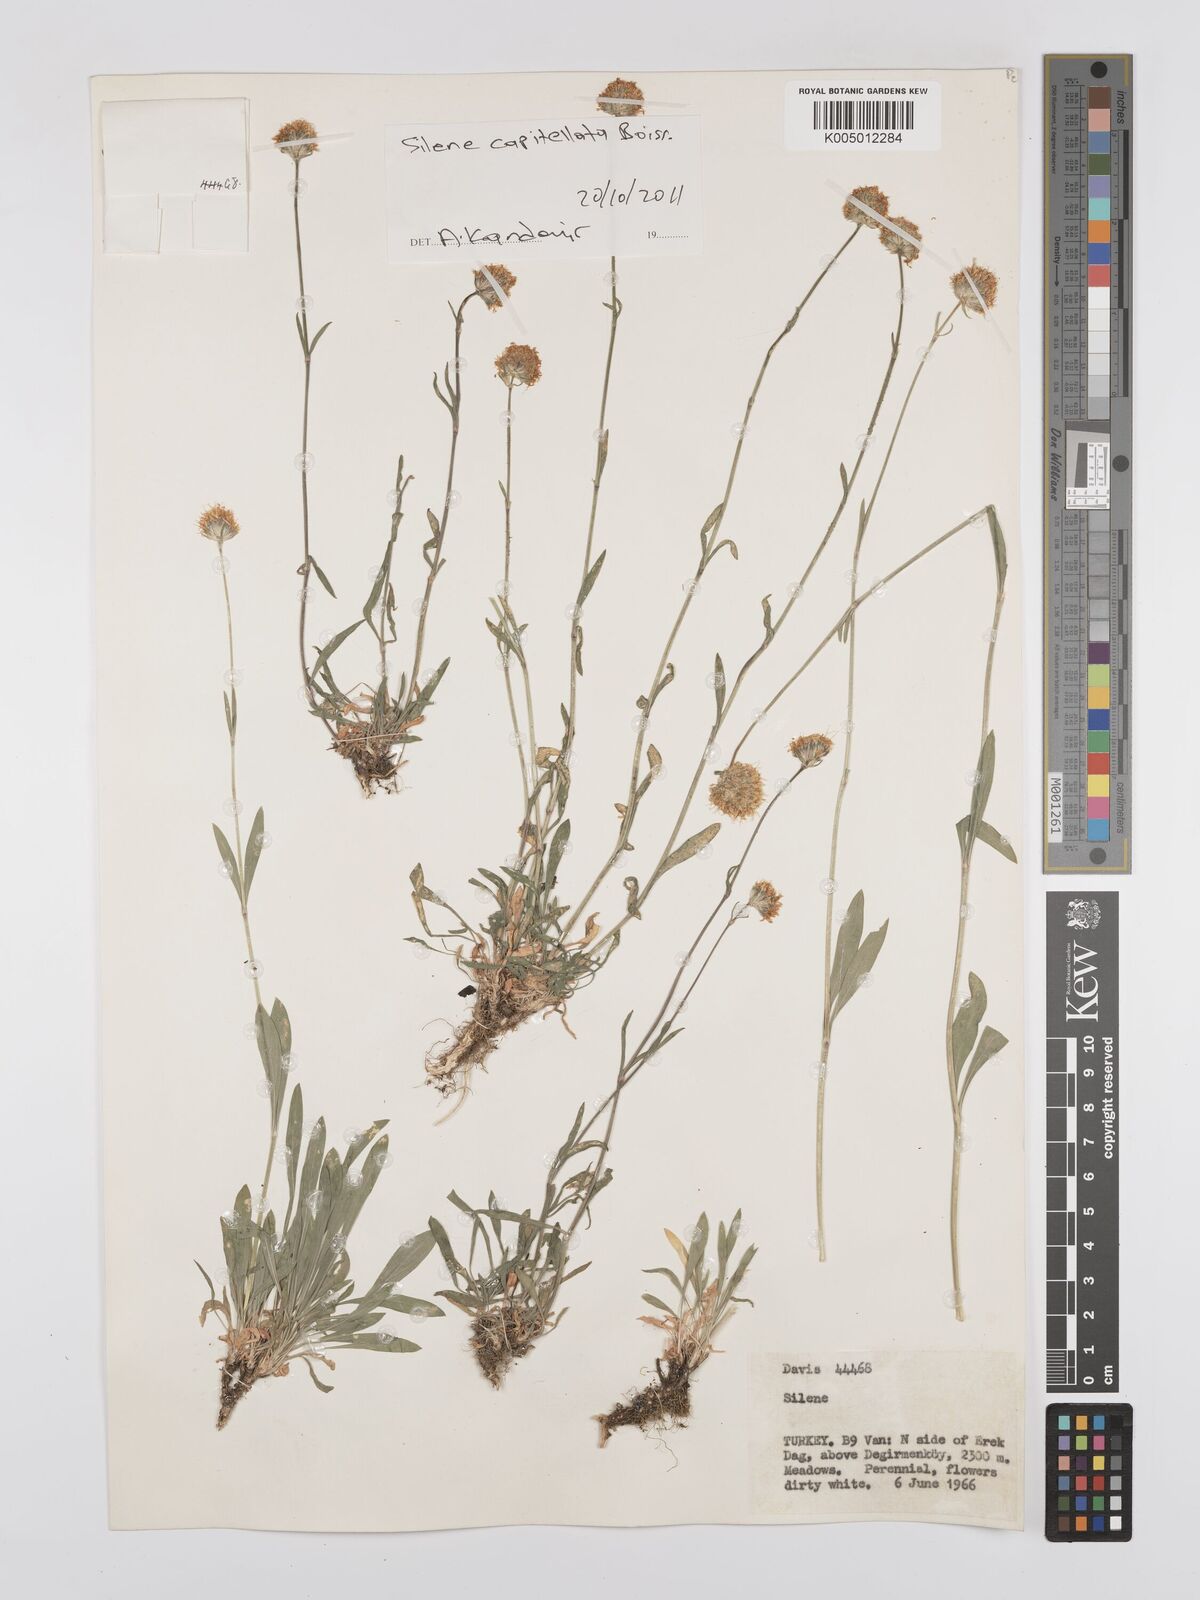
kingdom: Plantae
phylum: Tracheophyta
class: Magnoliopsida
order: Caryophyllales
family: Caryophyllaceae
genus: Silene
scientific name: Silene capitellata
